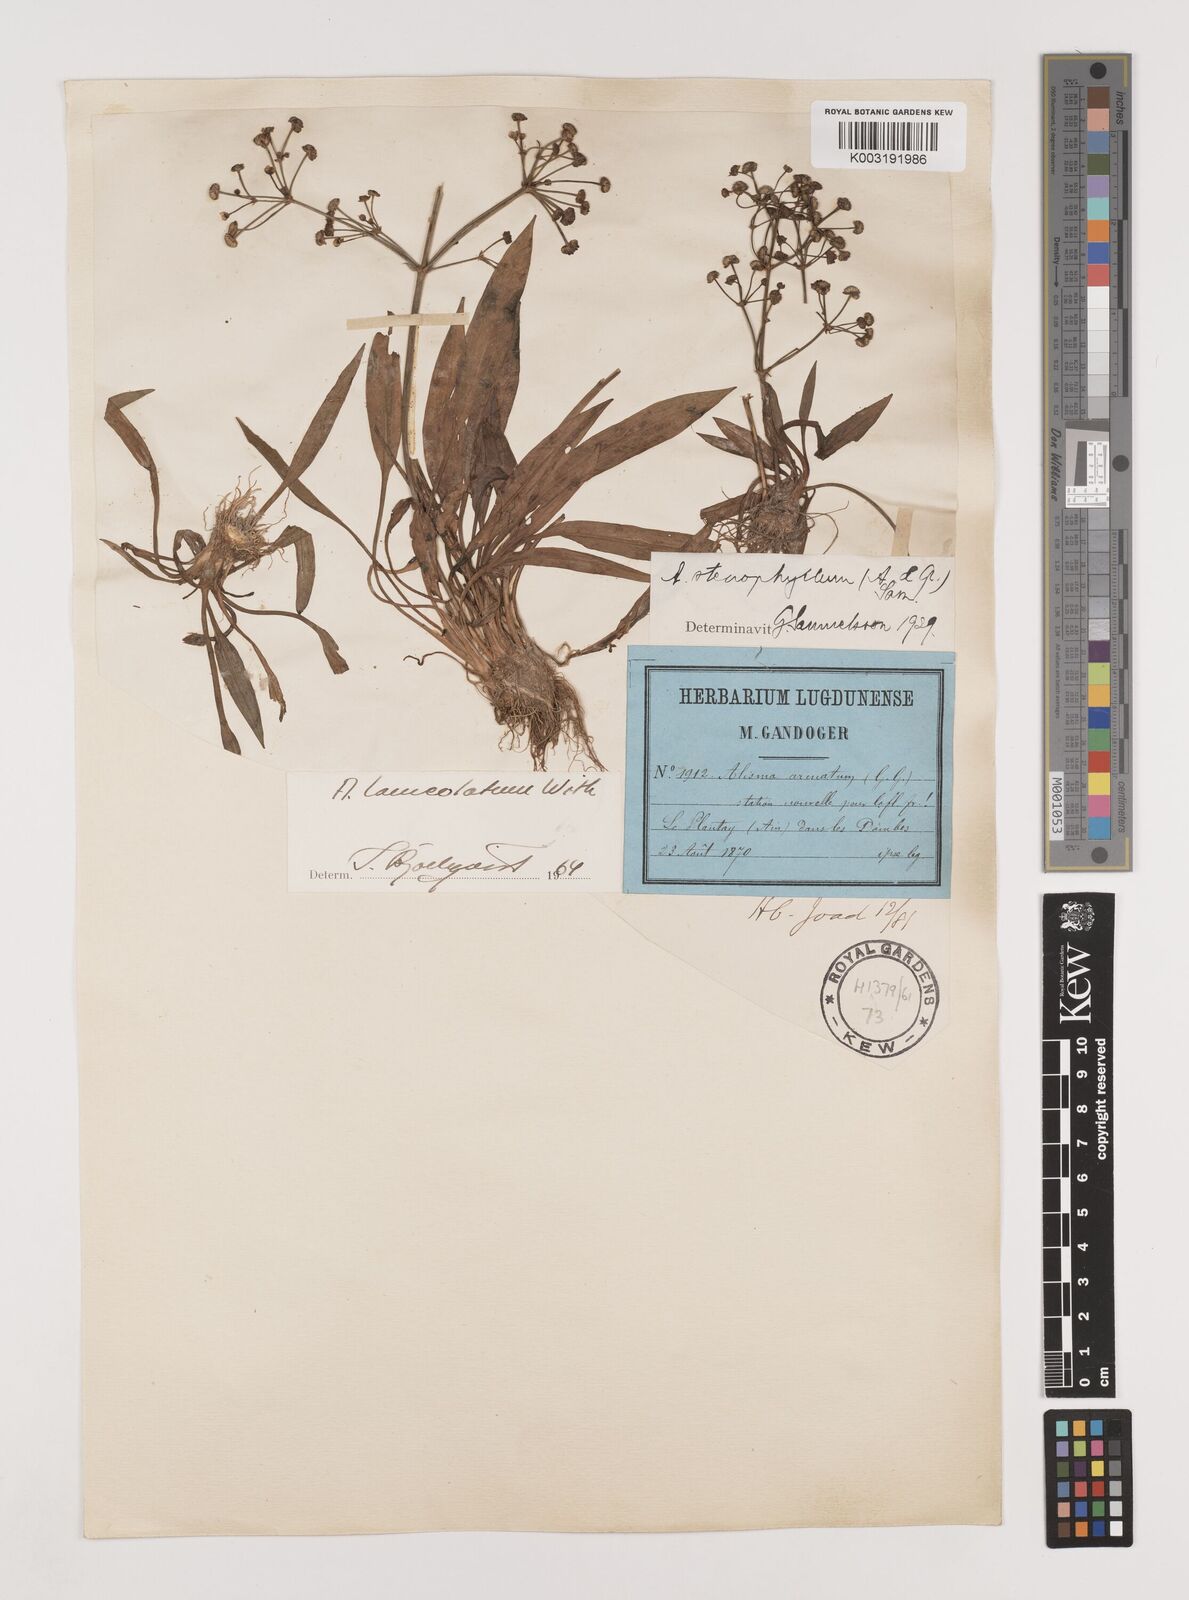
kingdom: Plantae
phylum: Tracheophyta
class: Liliopsida
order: Alismatales
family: Alismataceae
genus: Alisma
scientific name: Alisma lanceolatum
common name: Narrow-leaved water-plantain
